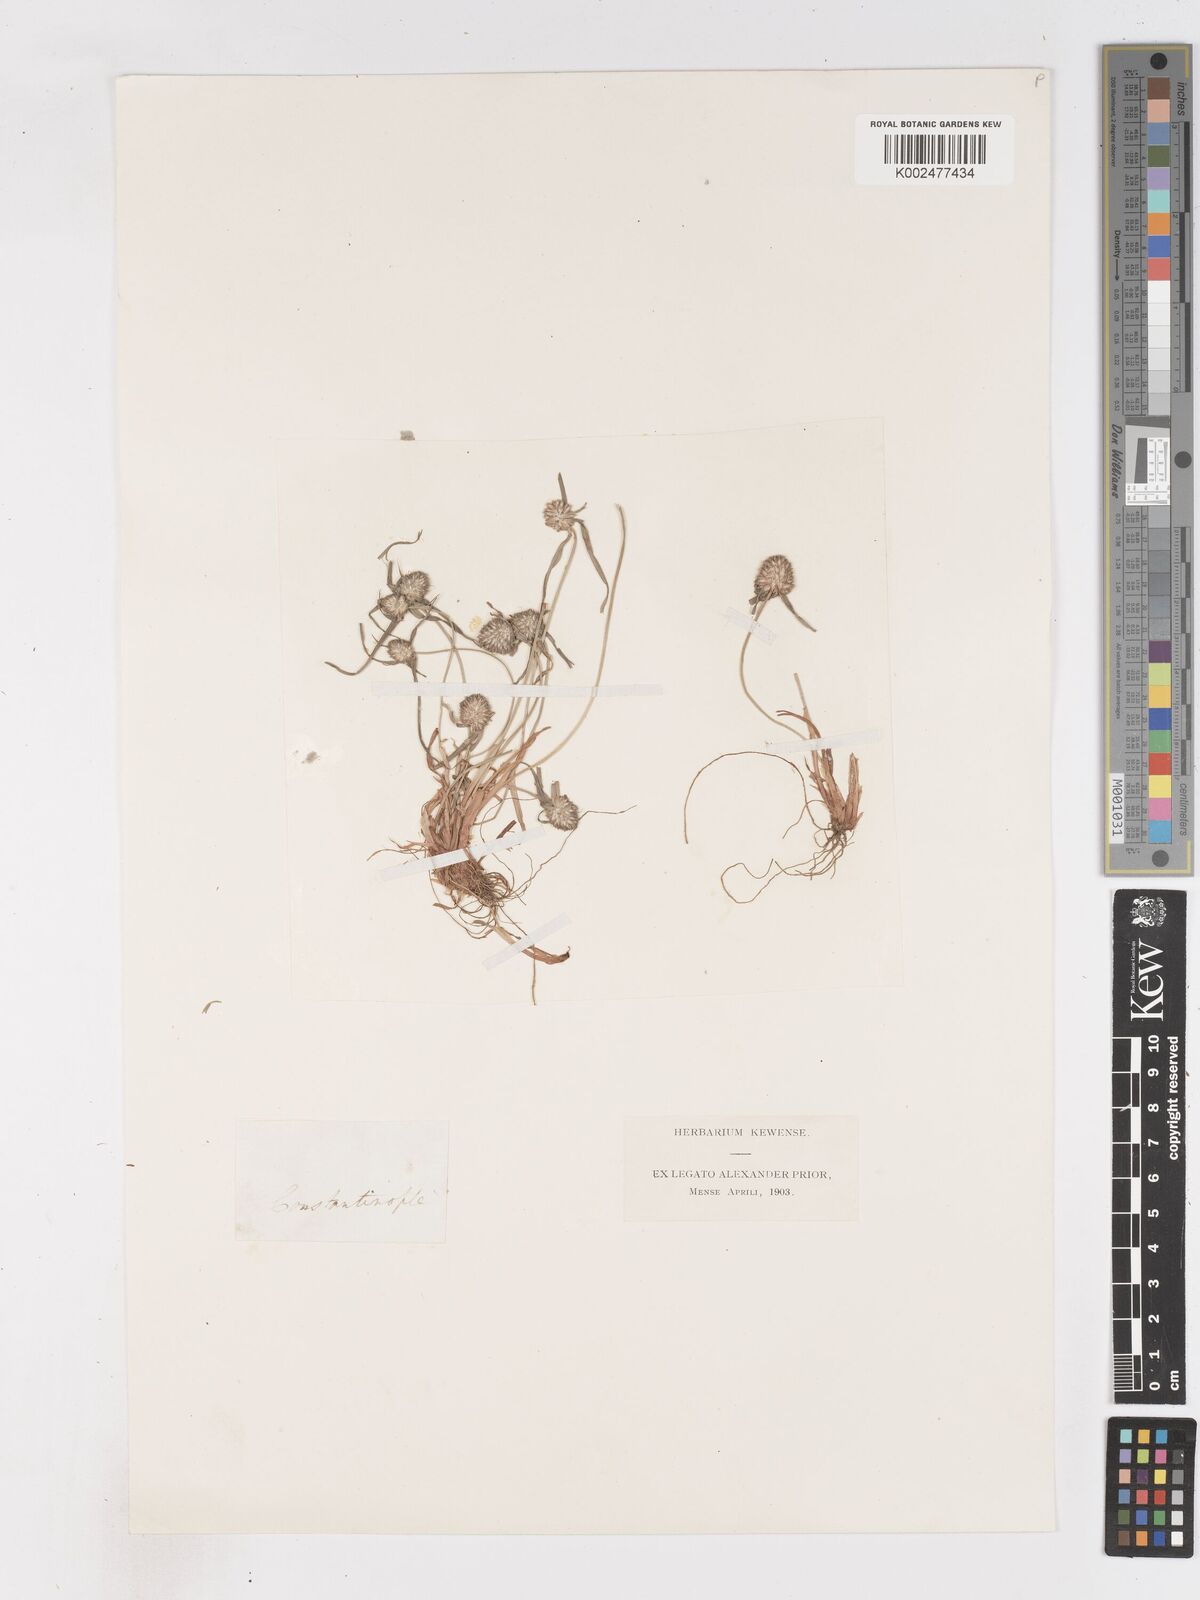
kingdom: Plantae
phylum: Tracheophyta
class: Liliopsida
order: Poales
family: Cyperaceae
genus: Cyperus
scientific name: Cyperus michelianus
